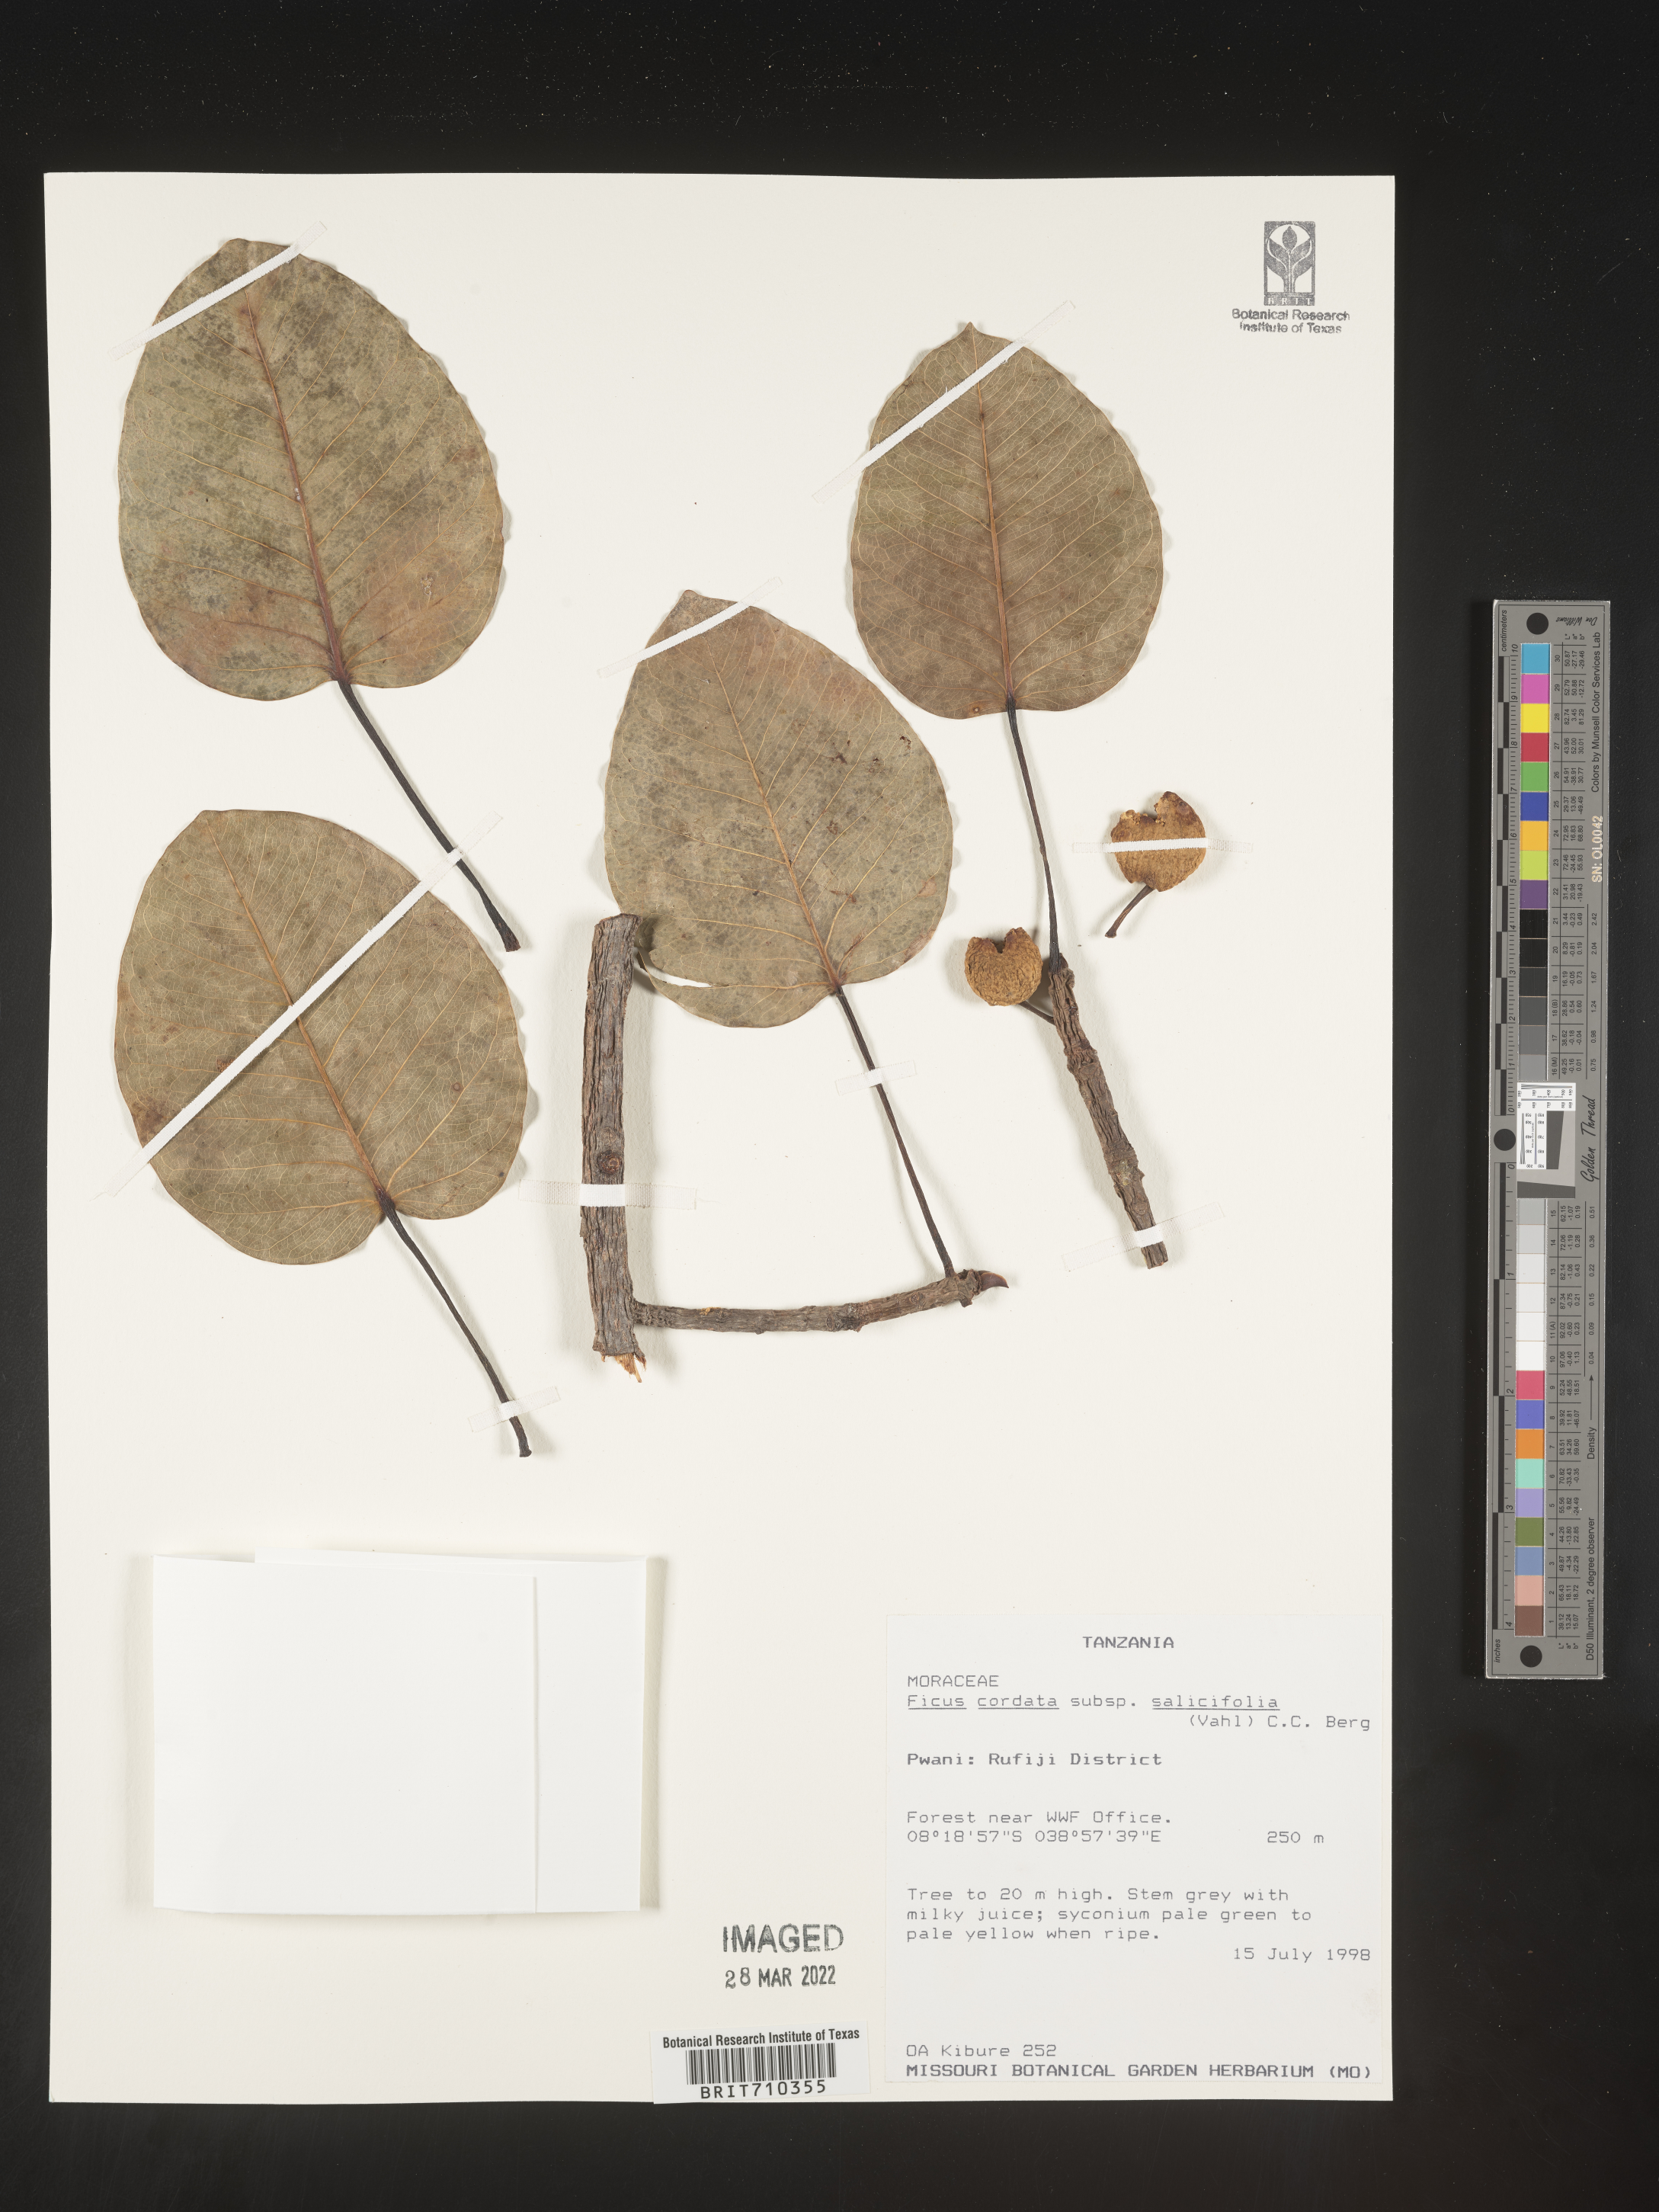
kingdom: Plantae
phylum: Tracheophyta
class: Magnoliopsida
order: Rosales
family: Moraceae
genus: Ficus
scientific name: Ficus
